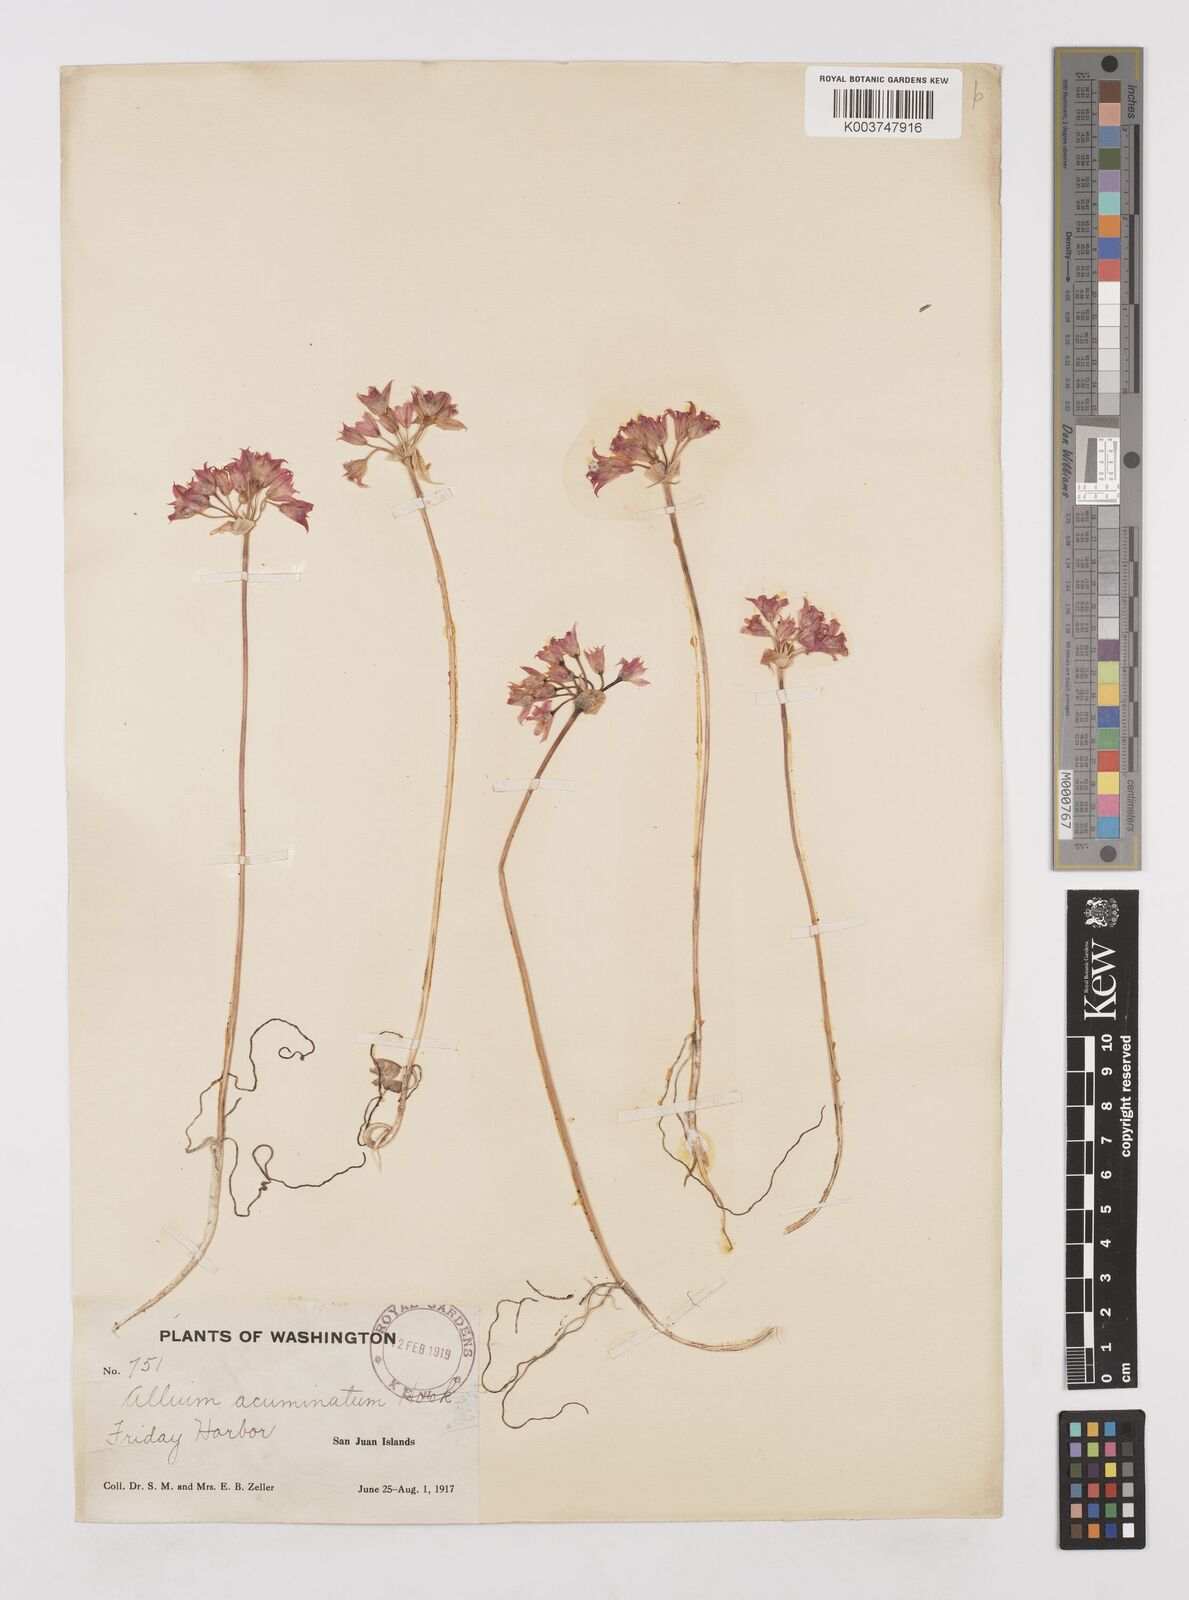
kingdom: Plantae
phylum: Tracheophyta
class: Liliopsida
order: Asparagales
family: Amaryllidaceae
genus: Allium
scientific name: Allium acuminatum
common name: Hooker's onion
